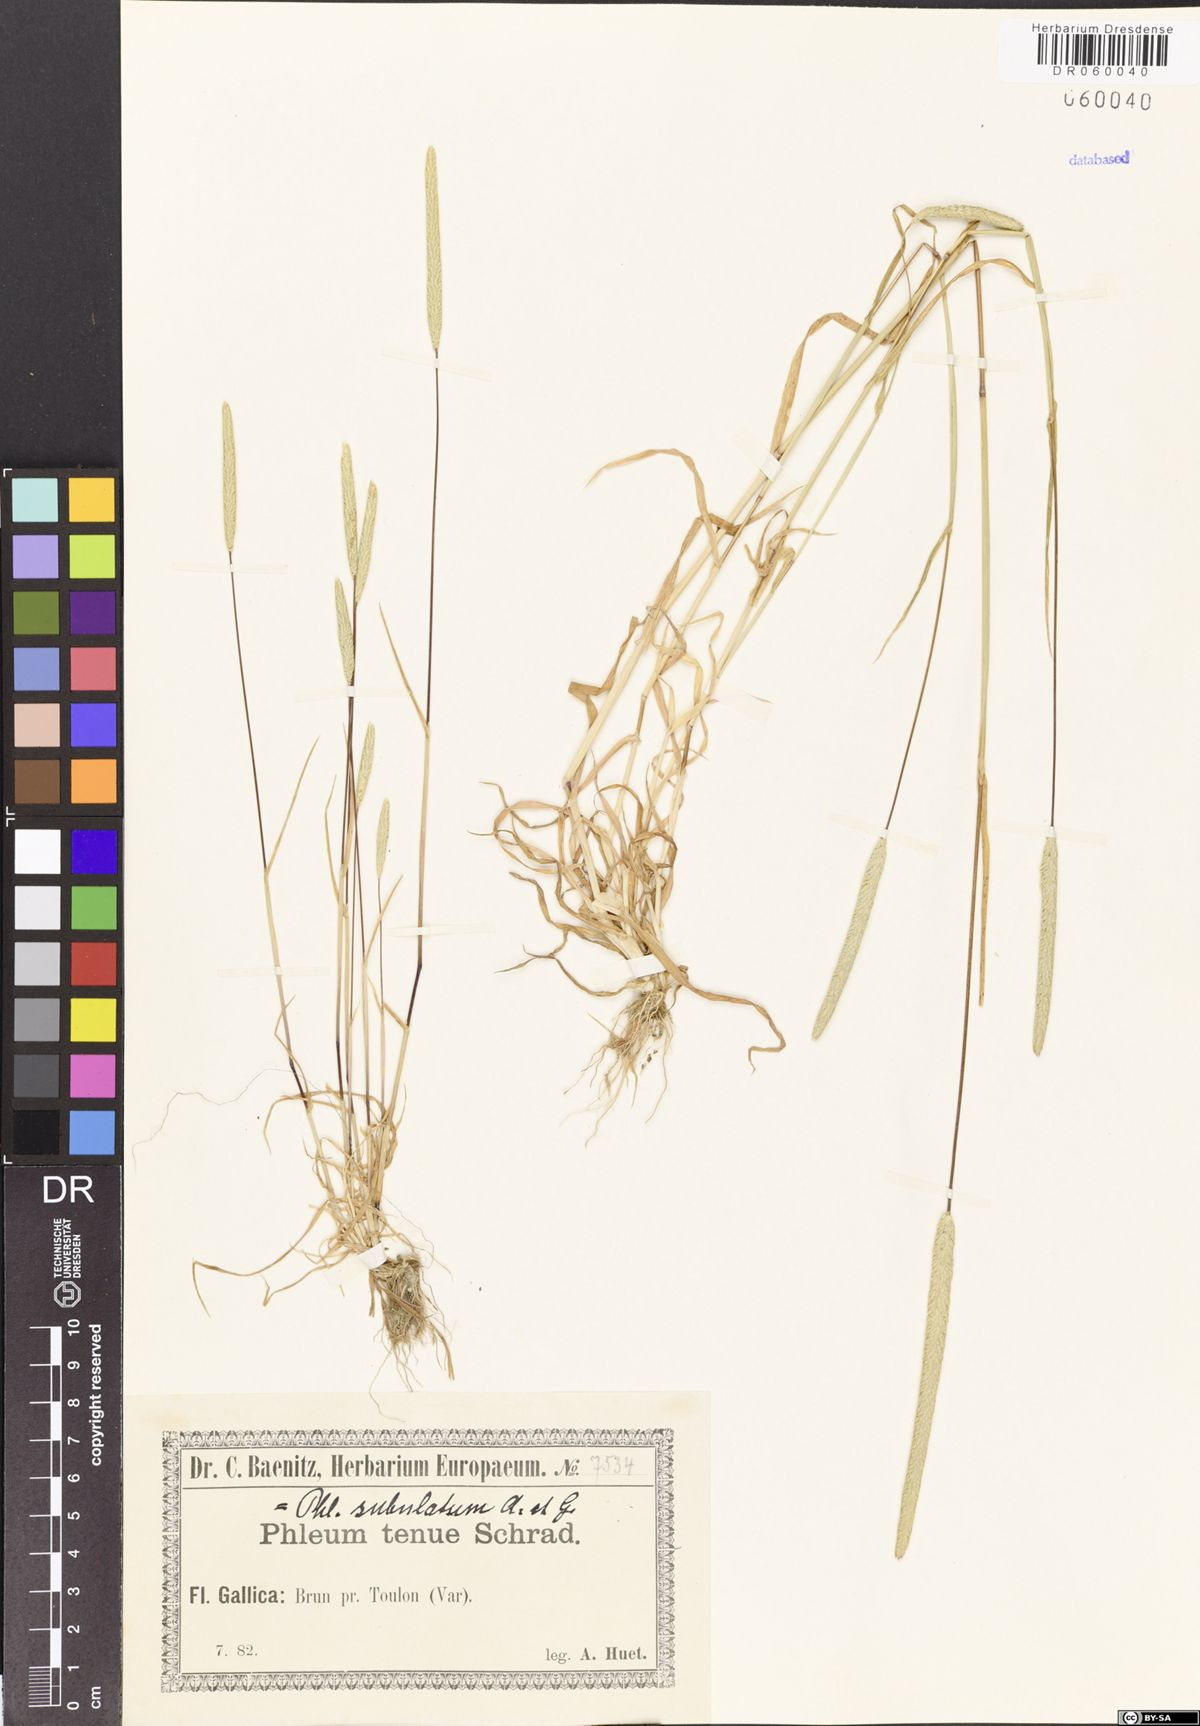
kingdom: Plantae
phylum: Tracheophyta
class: Liliopsida
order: Poales
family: Poaceae
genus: Phleum
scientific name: Phleum subulatum
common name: Italian timothy
